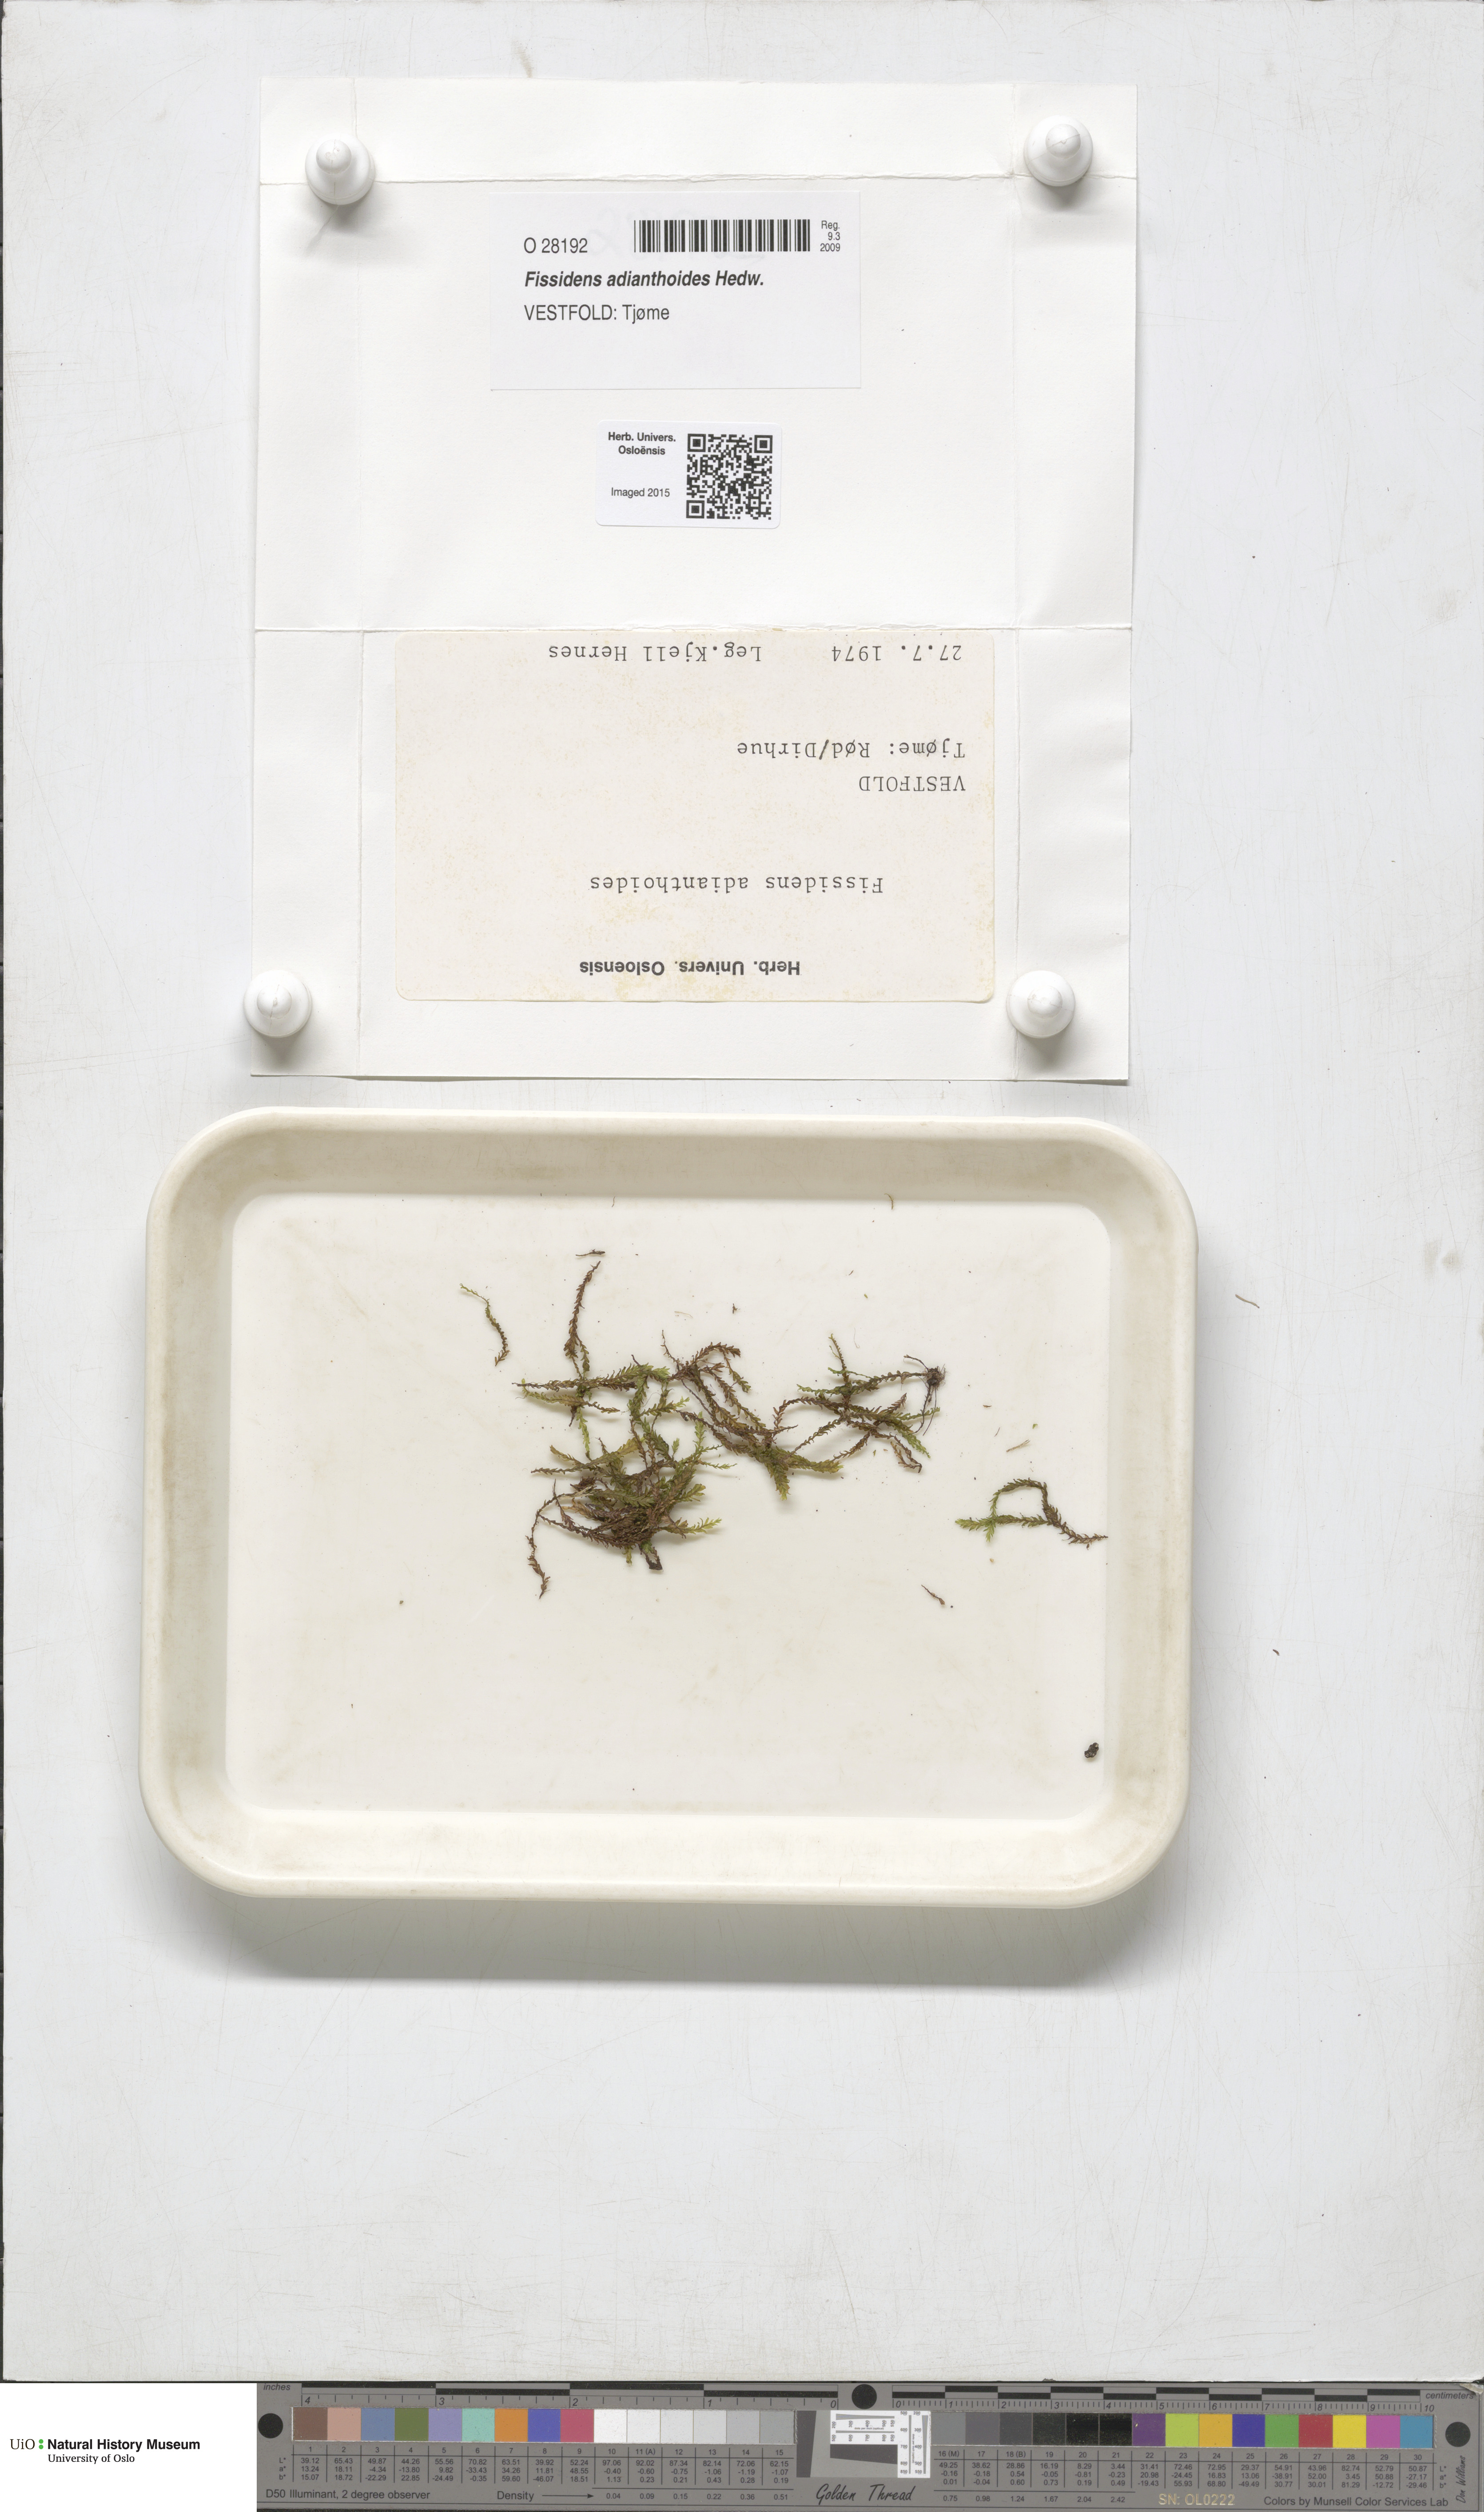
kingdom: Plantae
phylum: Bryophyta
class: Bryopsida
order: Dicranales
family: Fissidentaceae
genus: Fissidens
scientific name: Fissidens adianthoides
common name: Maidenhair pocket moss
